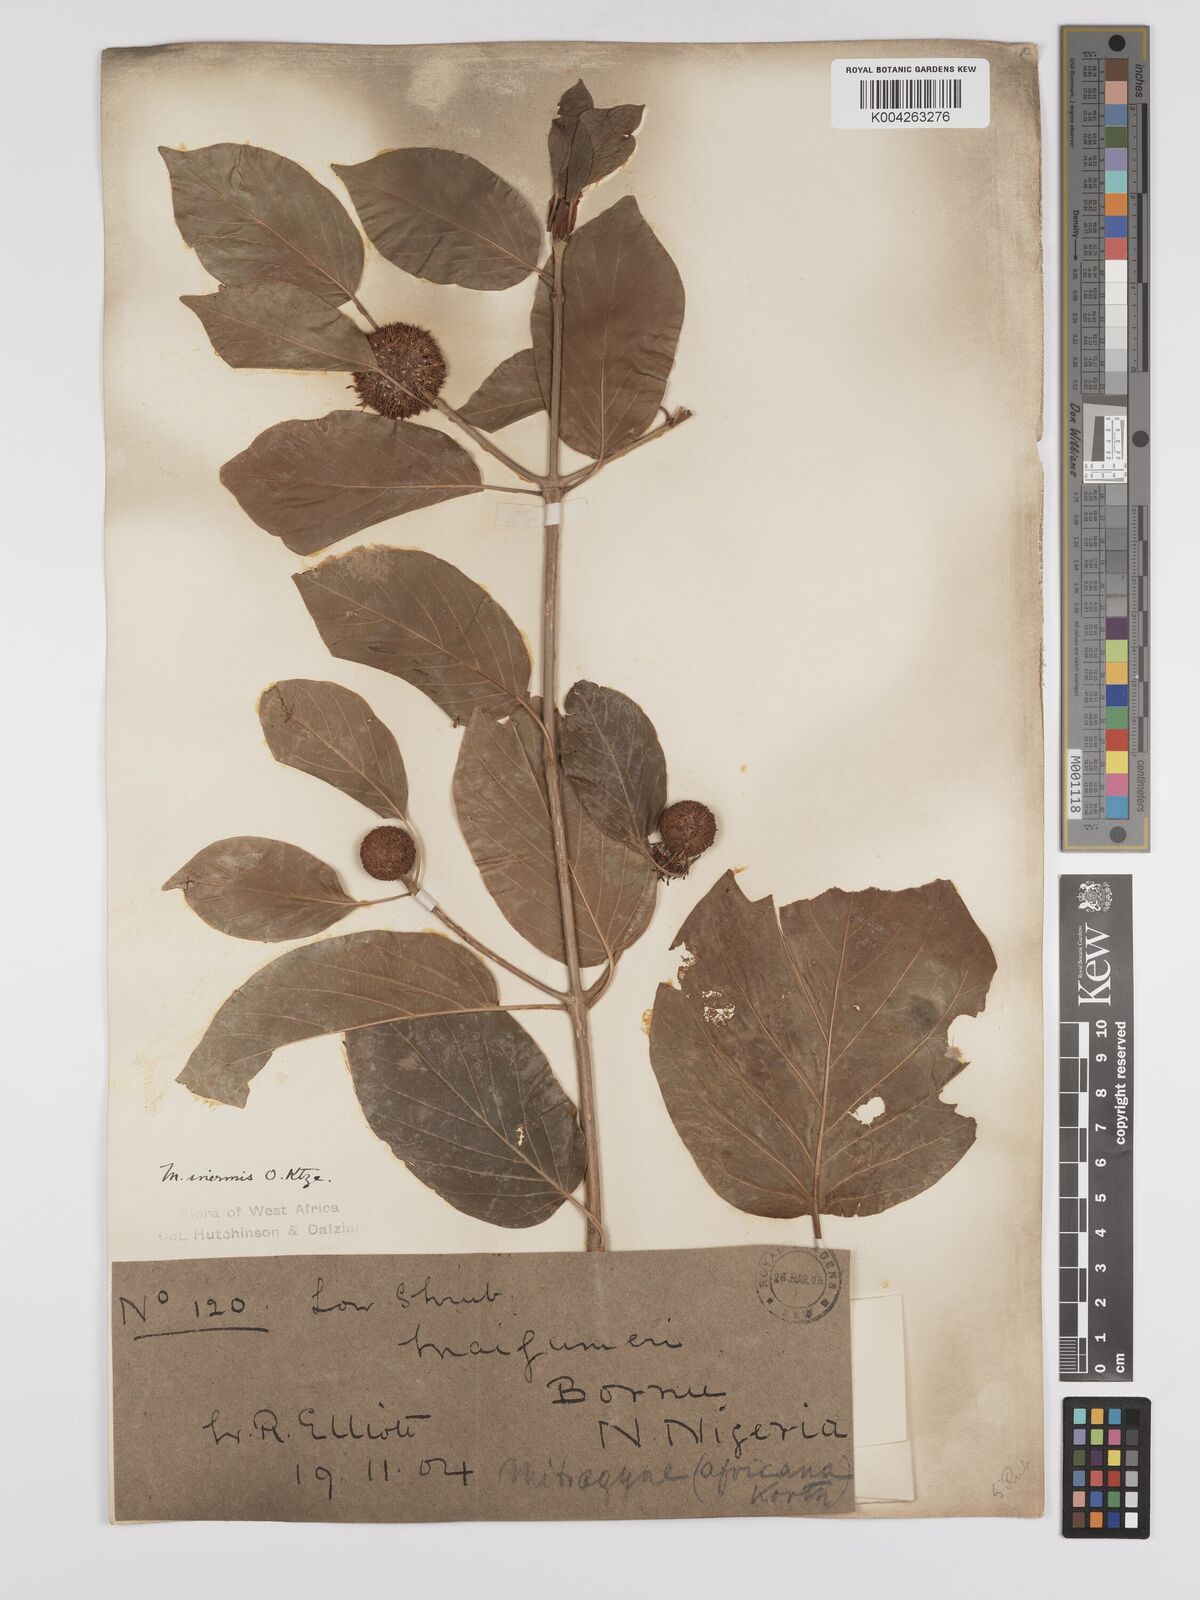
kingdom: Plantae
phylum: Tracheophyta
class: Magnoliopsida
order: Gentianales
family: Rubiaceae
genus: Mitragyna
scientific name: Mitragyna inermis
